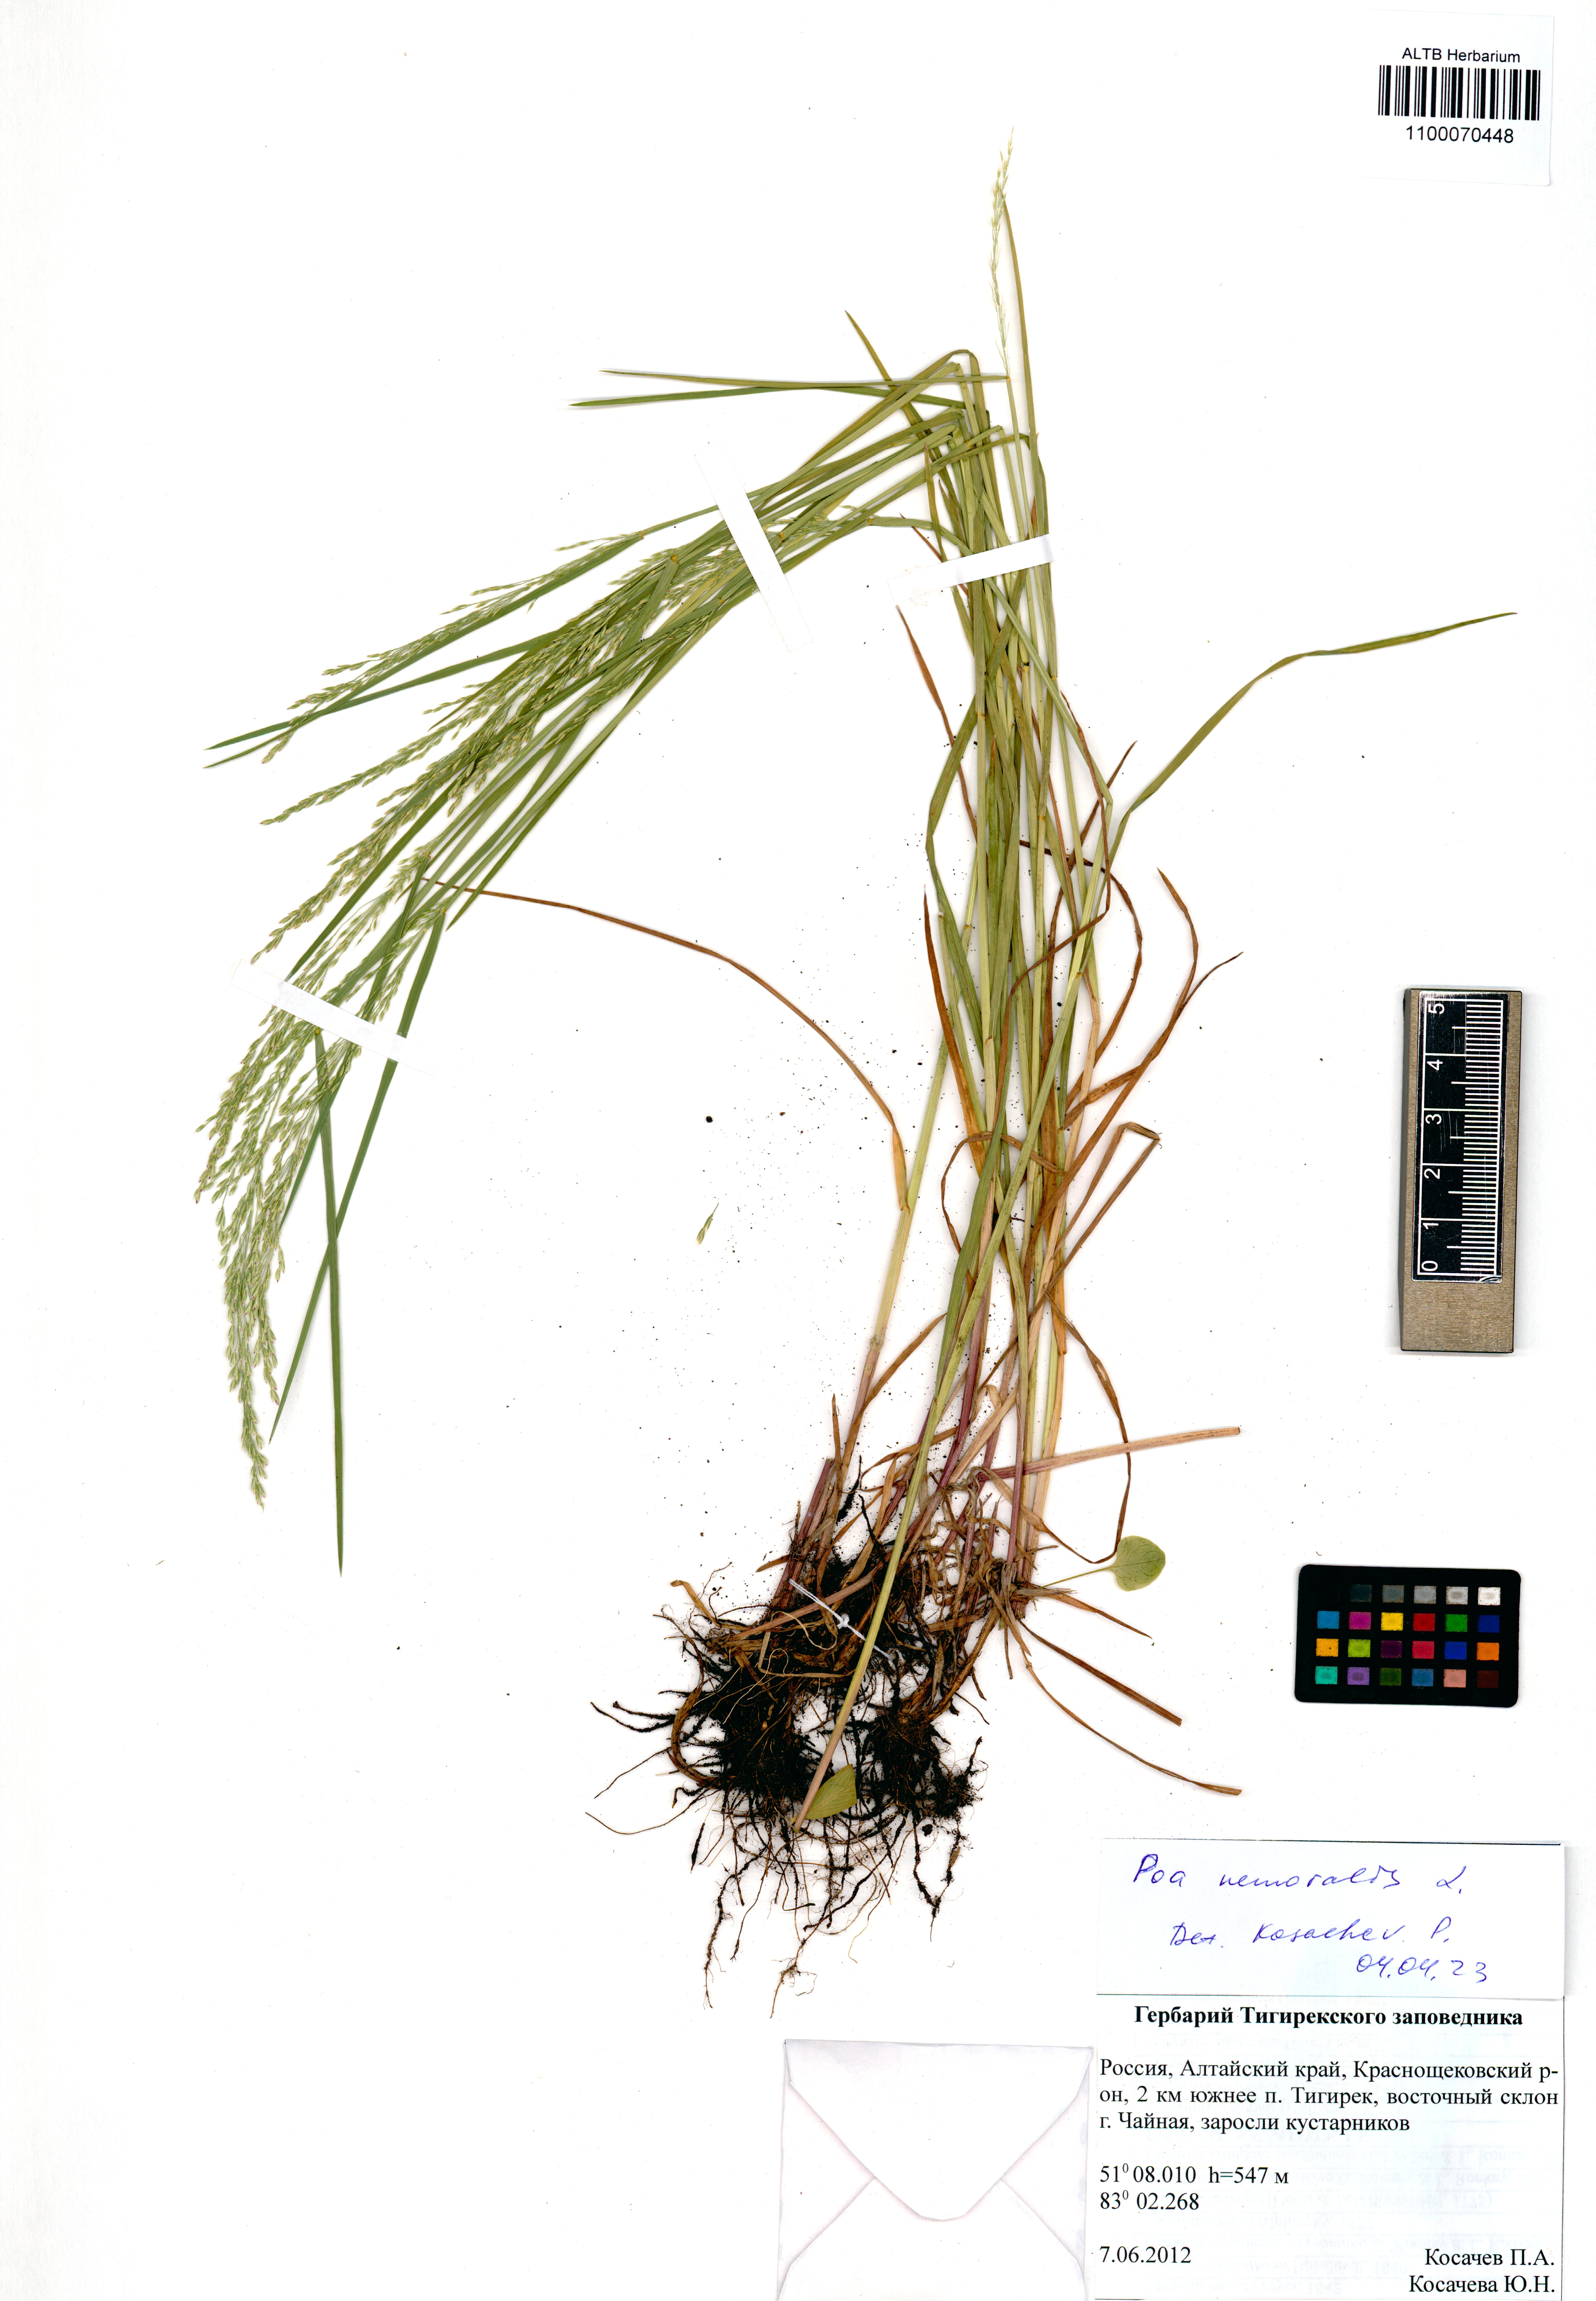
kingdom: Plantae
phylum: Tracheophyta
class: Liliopsida
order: Poales
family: Poaceae
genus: Poa
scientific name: Poa nemoralis
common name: Wood bluegrass
